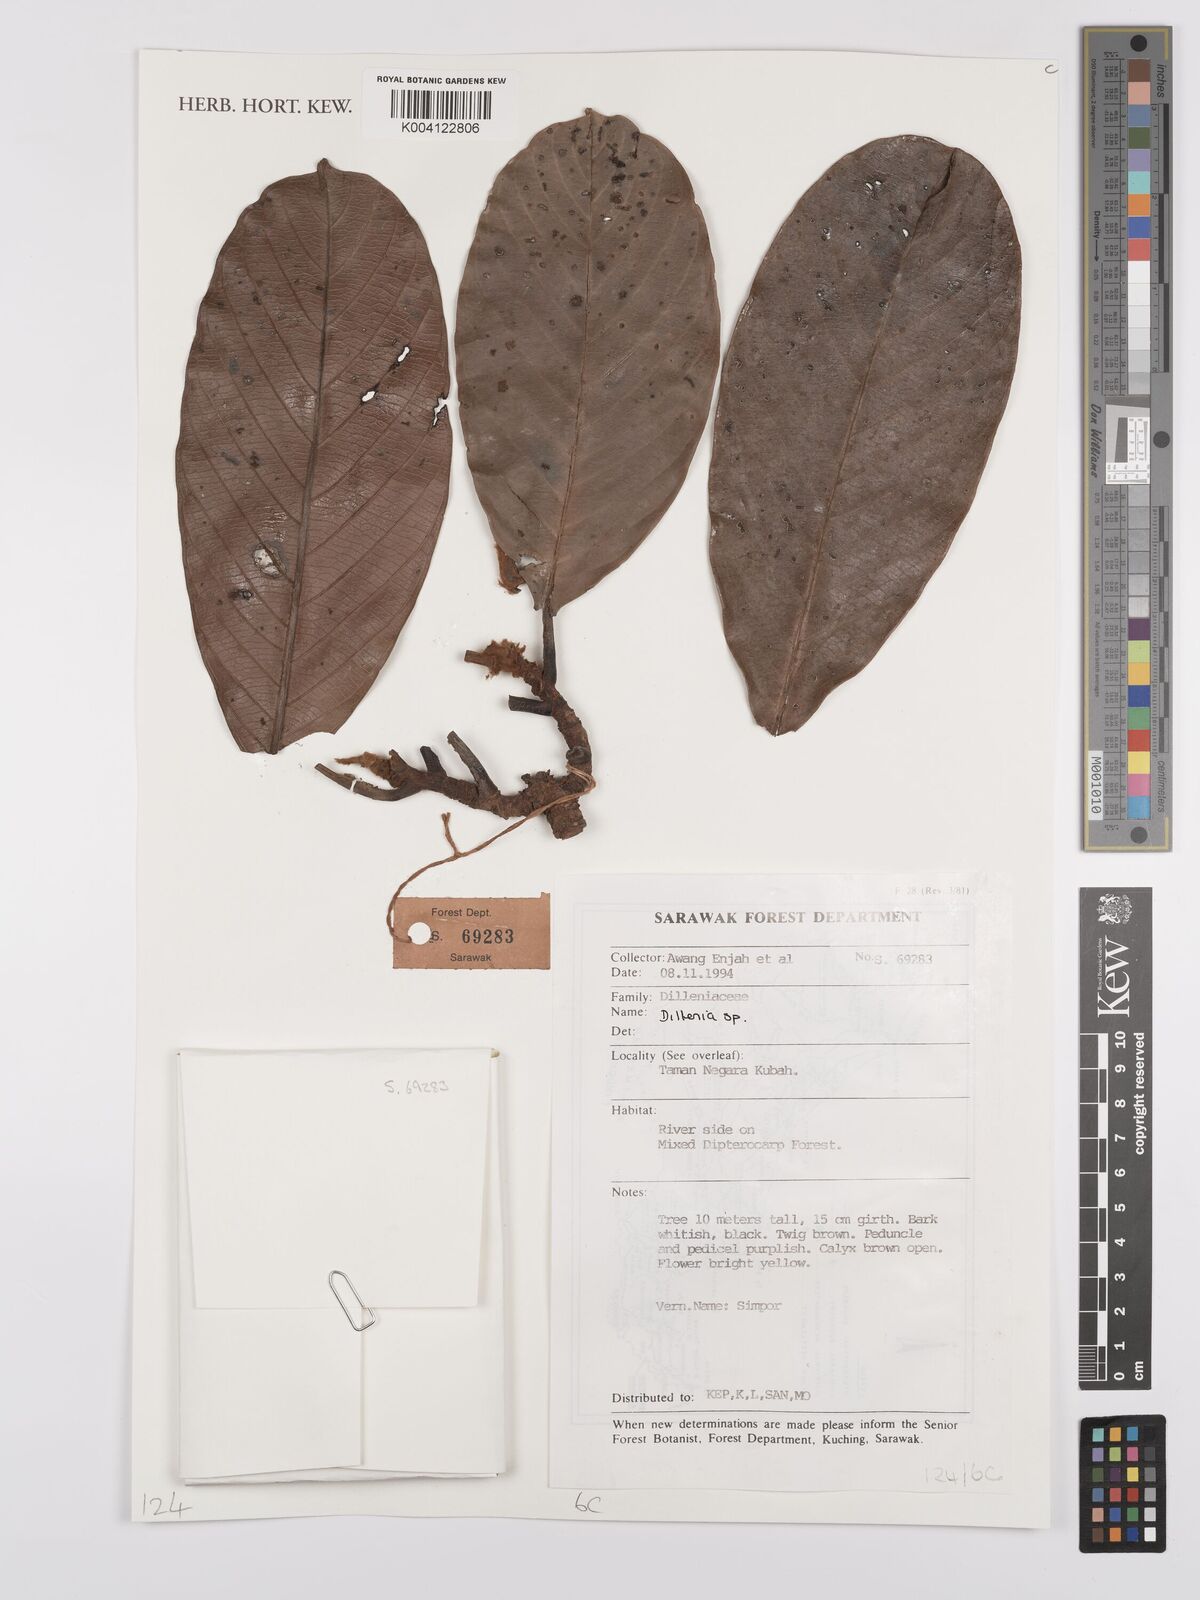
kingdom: Plantae
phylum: Tracheophyta
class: Magnoliopsida
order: Dilleniales
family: Dilleniaceae
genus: Dillenia
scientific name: Dillenia
